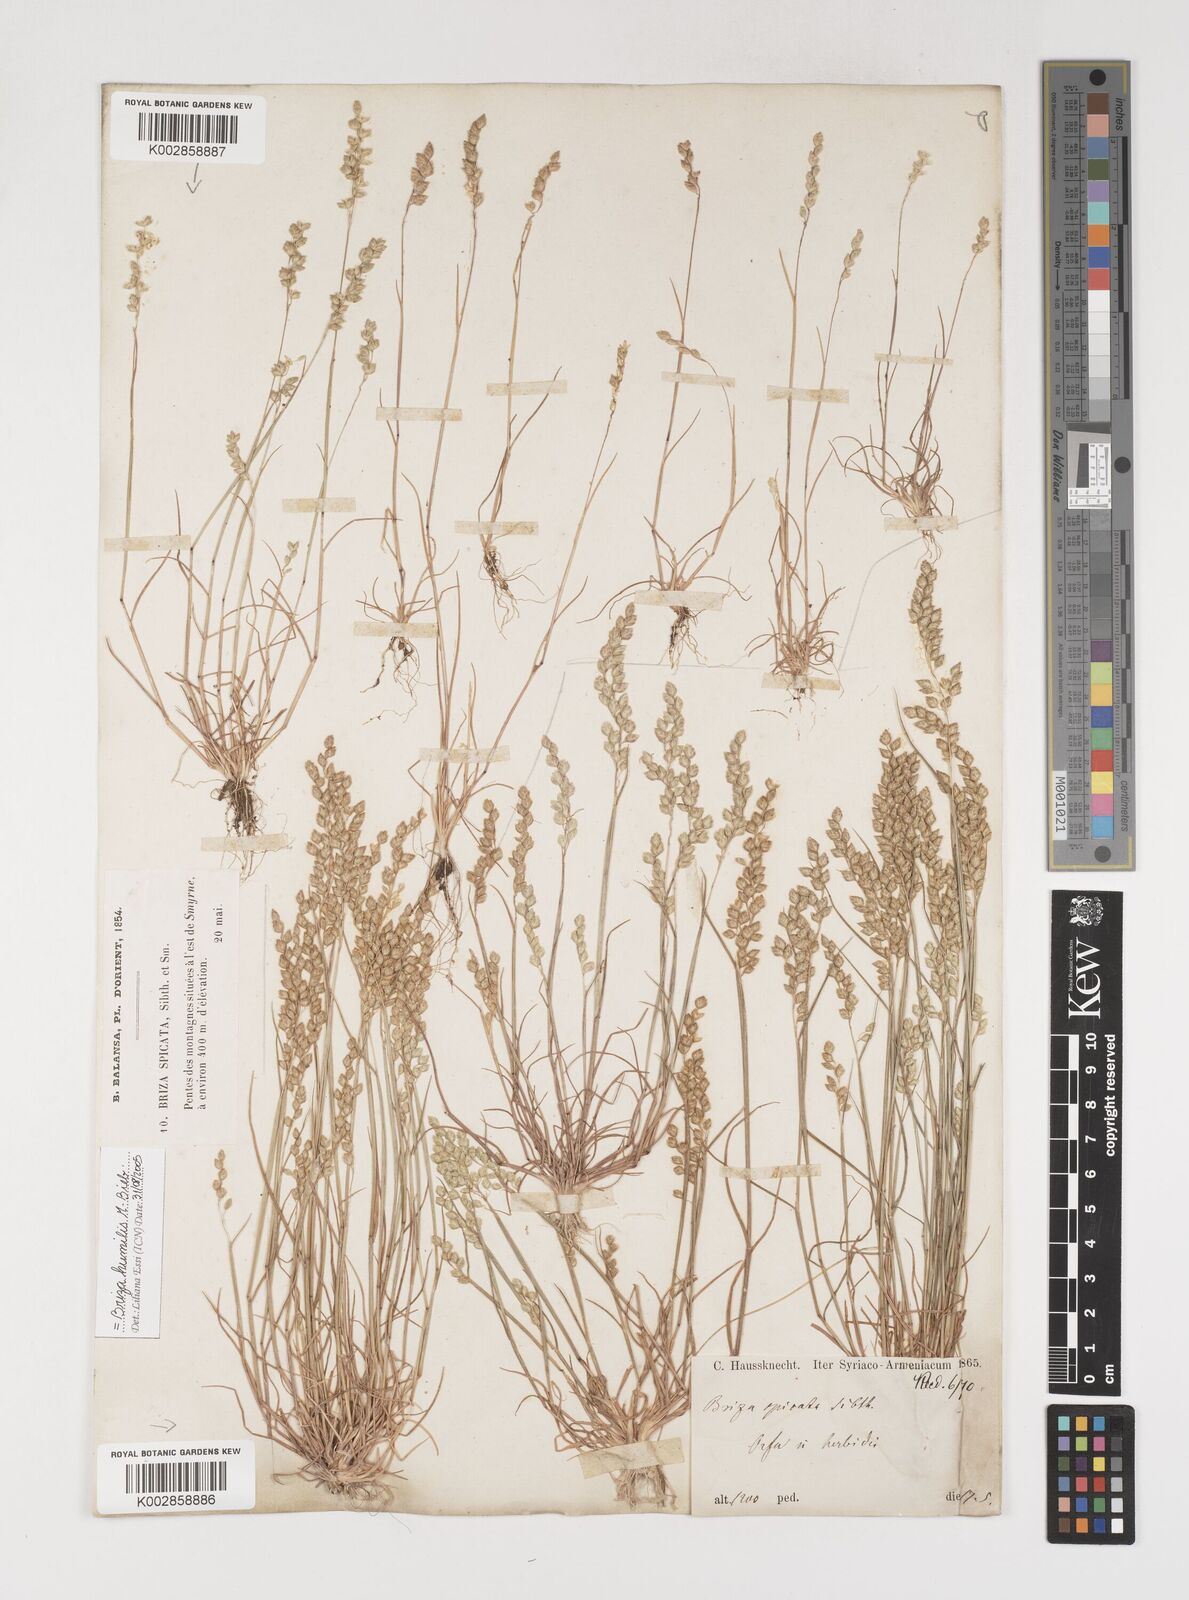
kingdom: Plantae
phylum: Tracheophyta
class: Liliopsida
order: Poales
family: Poaceae
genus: Briza
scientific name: Briza humilis
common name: Spiked quaking grass
